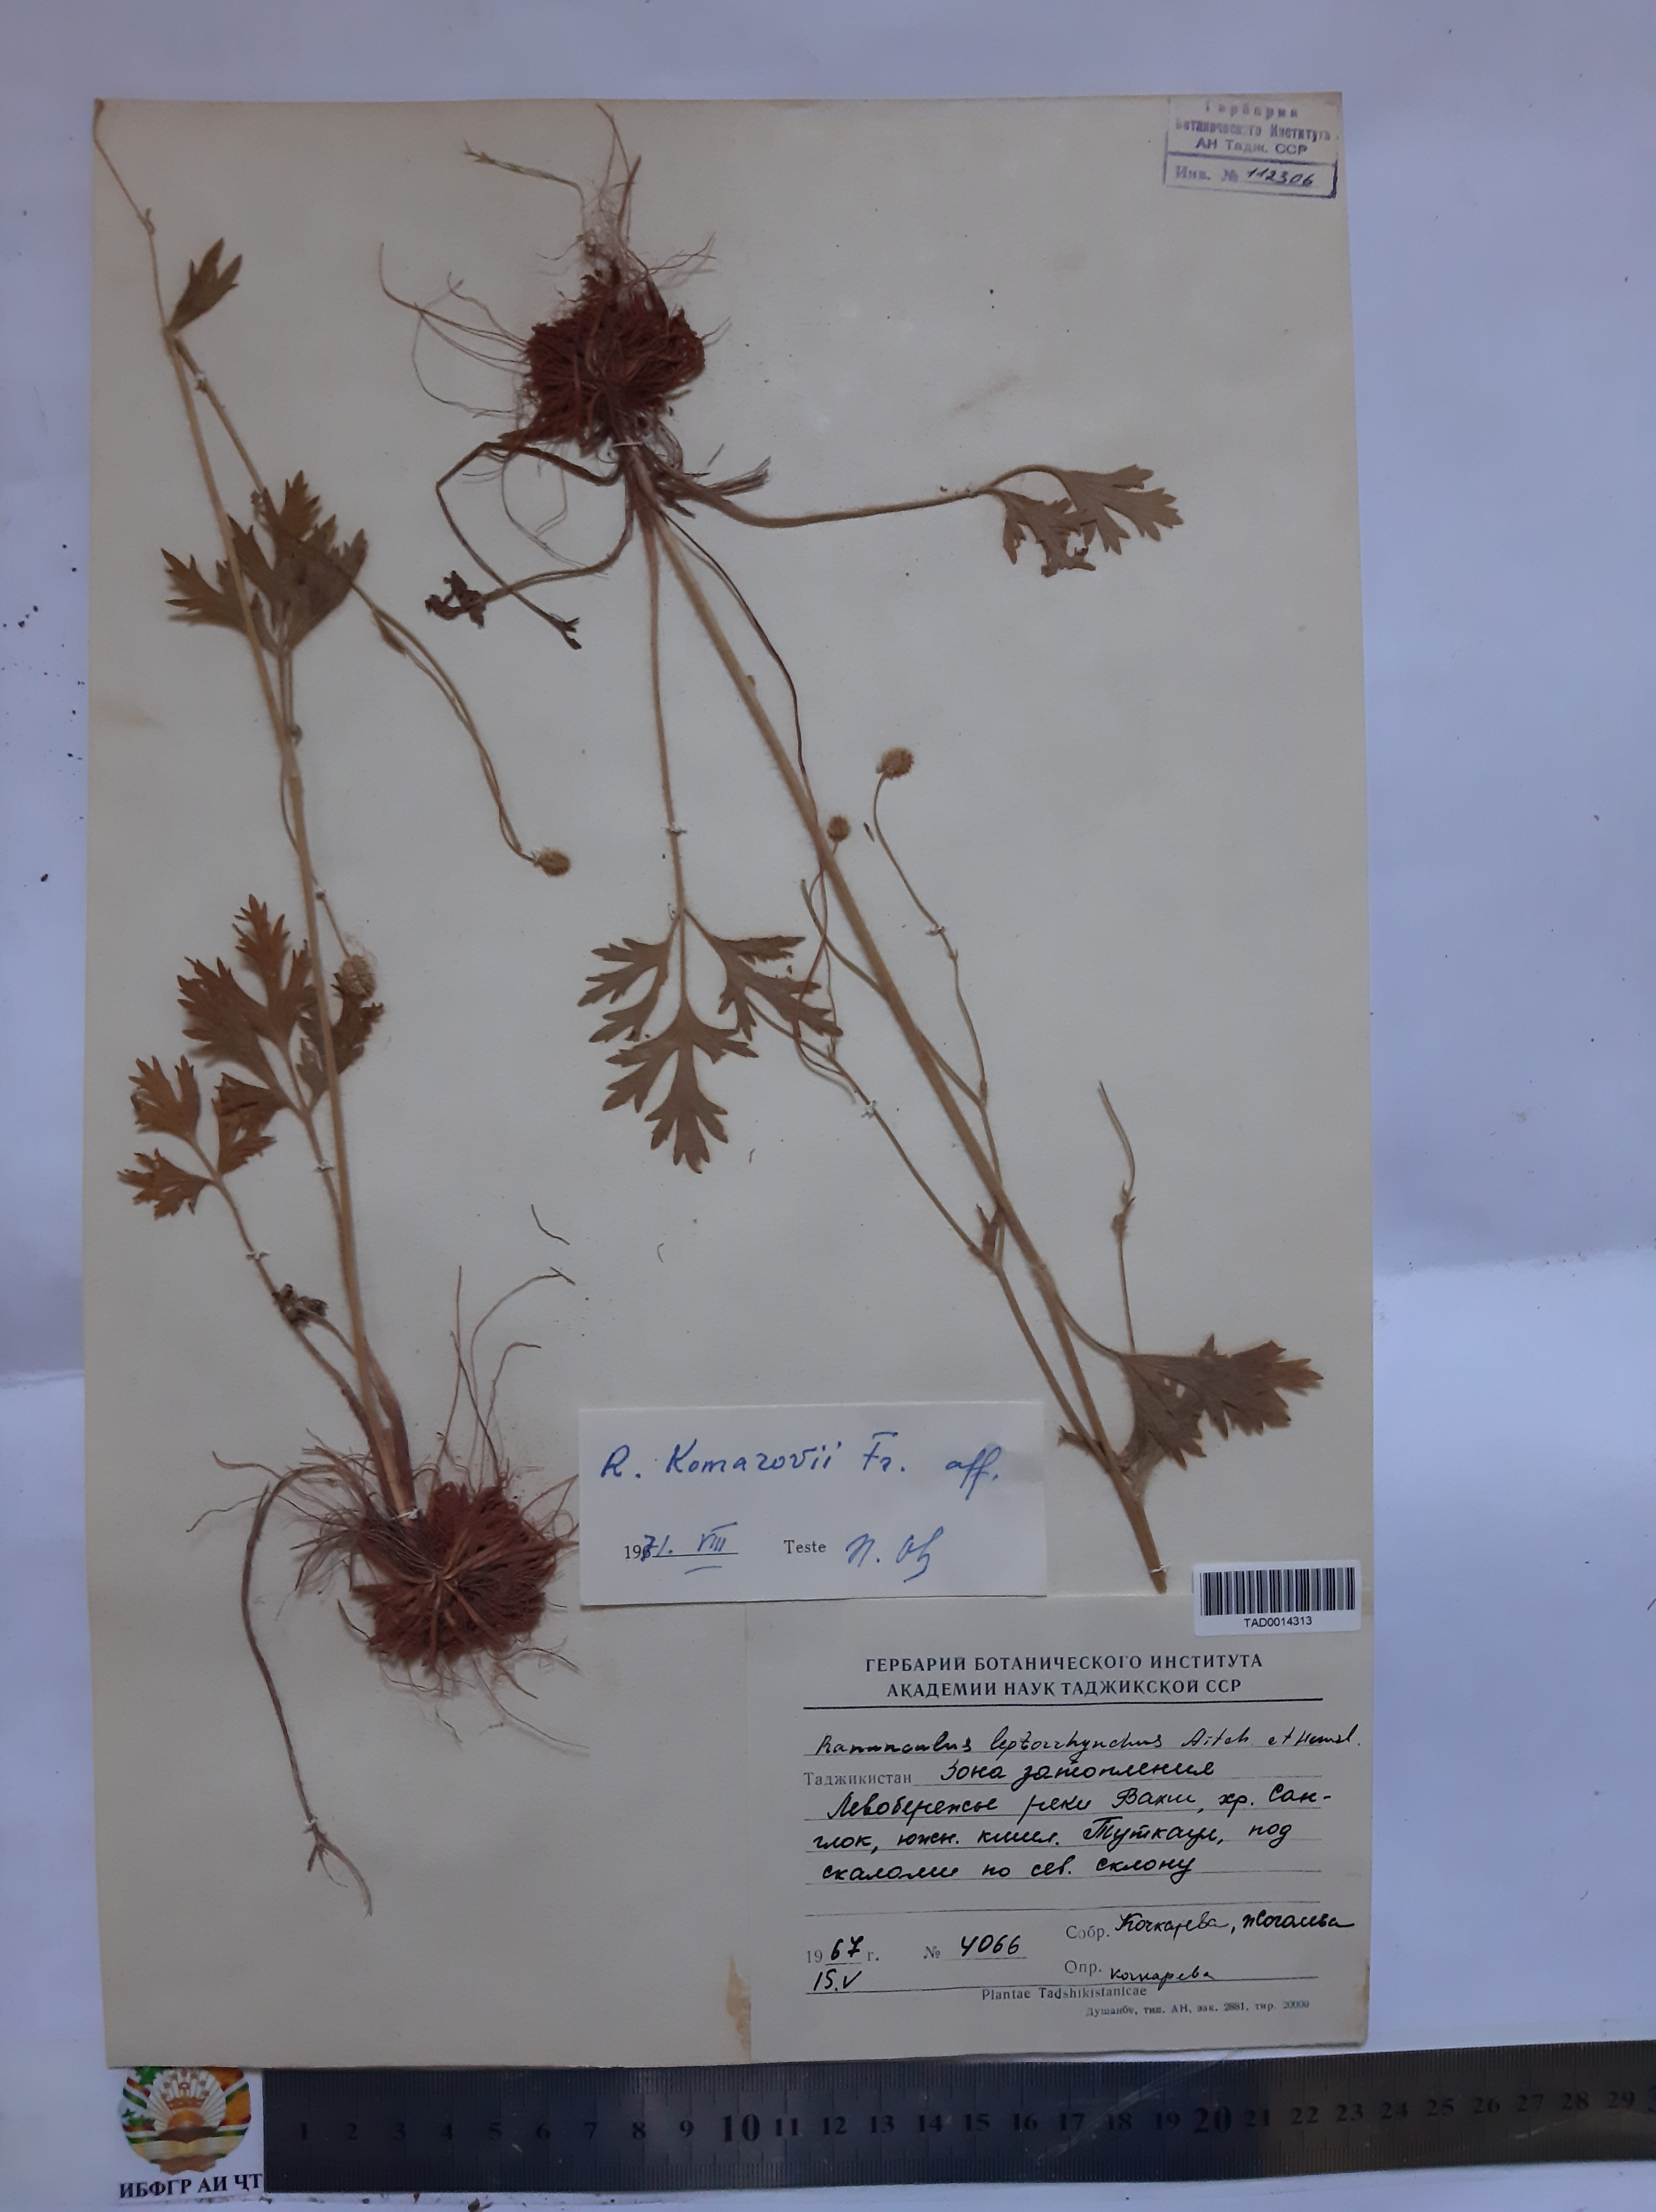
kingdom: Plantae
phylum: Tracheophyta
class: Magnoliopsida
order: Ranunculales
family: Ranunculaceae
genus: Ranunculus
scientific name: Ranunculus leptorrhynchus
